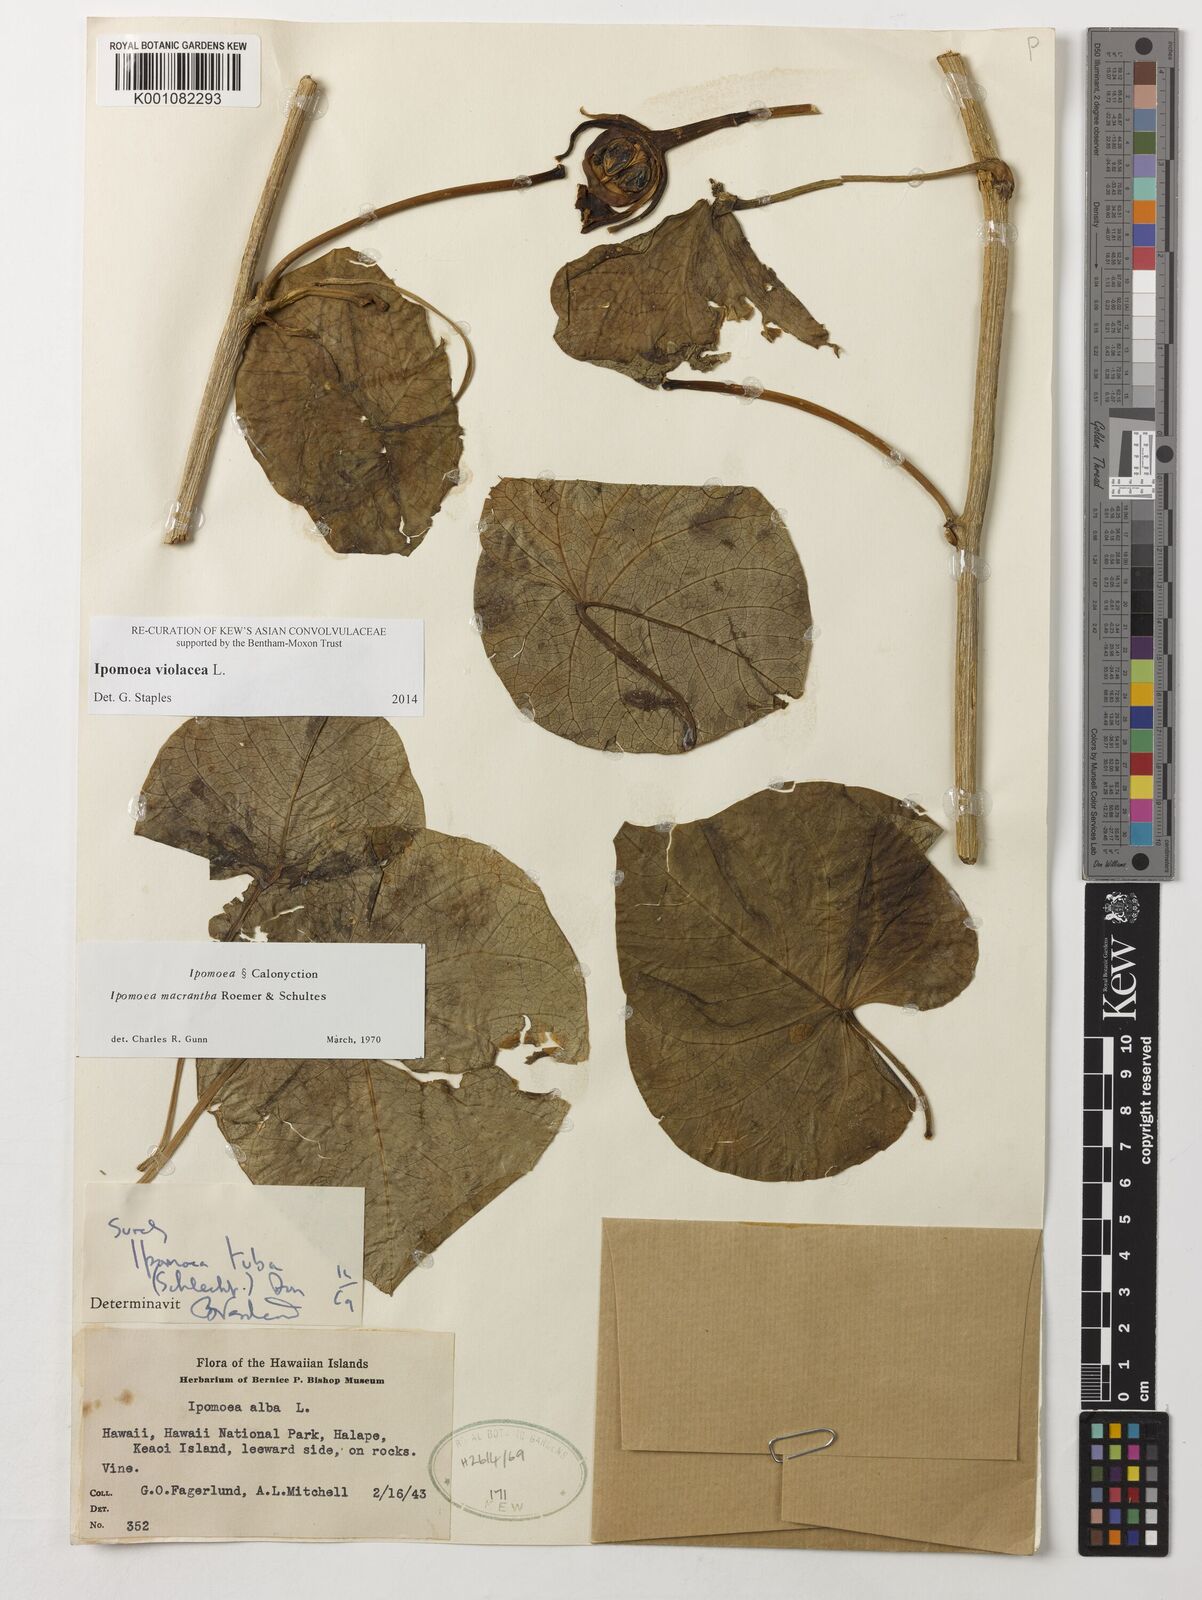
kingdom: Plantae
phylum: Tracheophyta
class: Magnoliopsida
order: Solanales
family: Convolvulaceae
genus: Ipomoea
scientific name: Ipomoea violacea
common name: Beach moonflower
